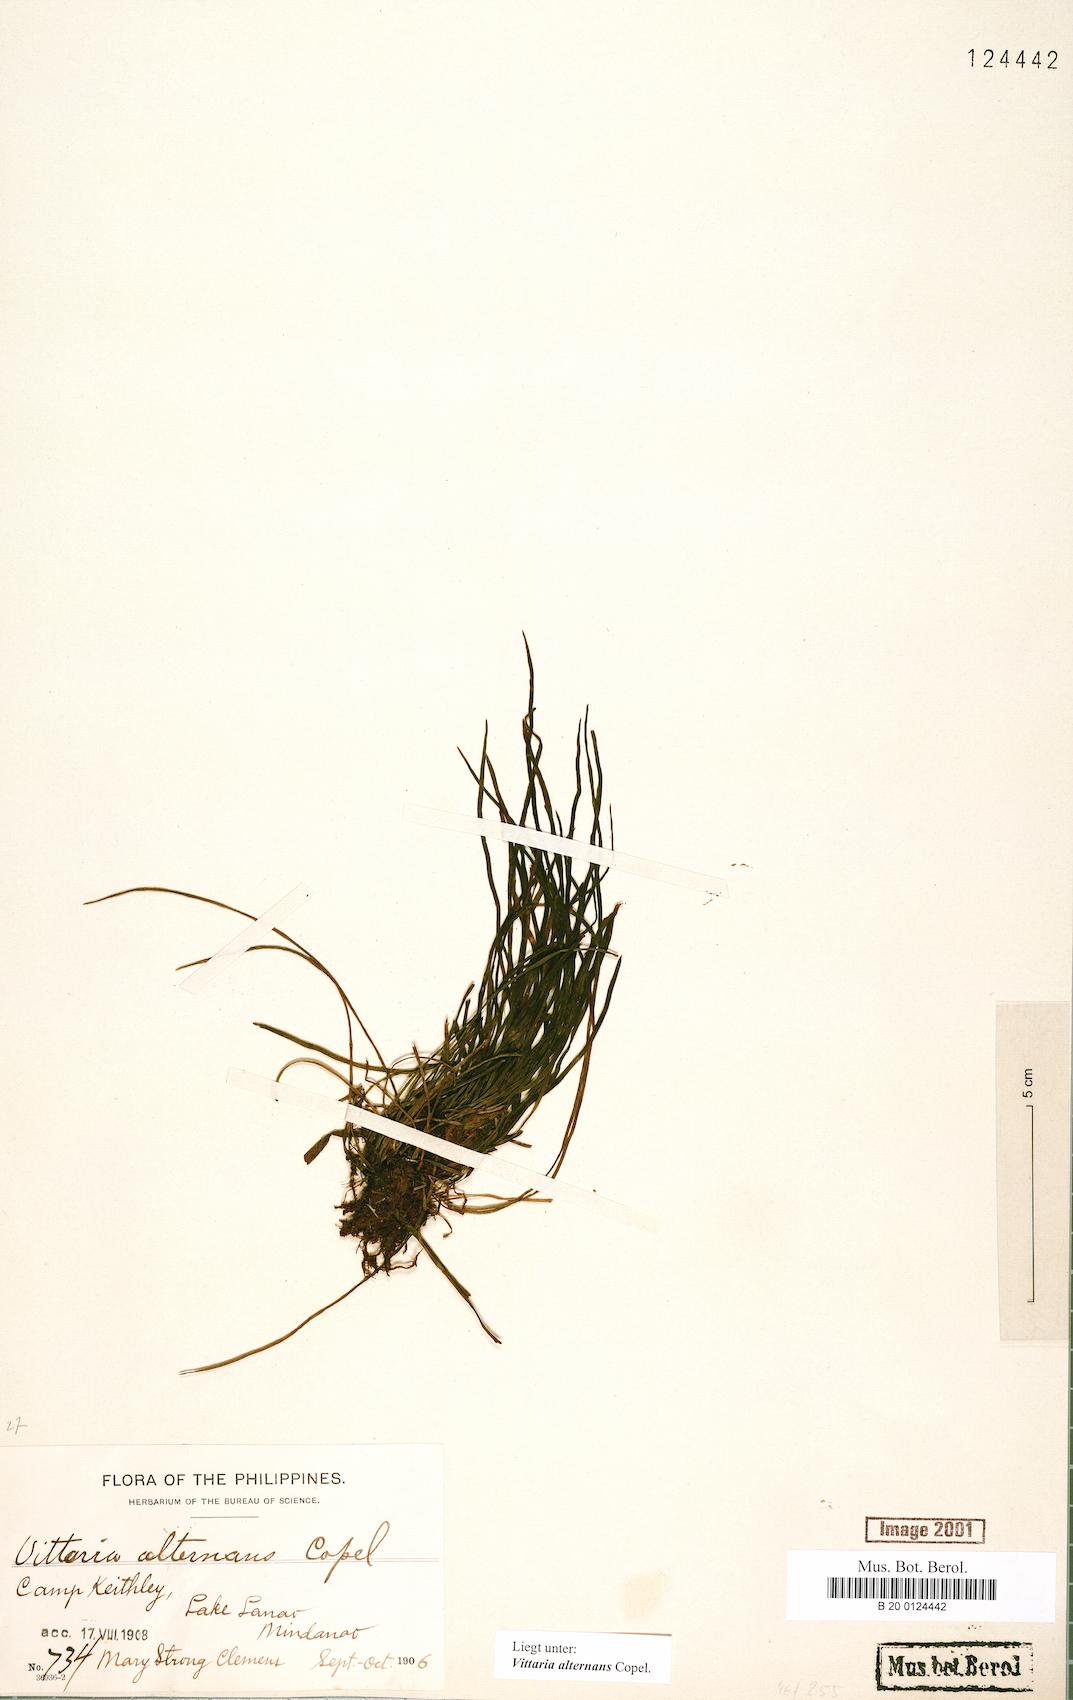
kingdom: Plantae
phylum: Tracheophyta
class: Polypodiopsida
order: Polypodiales
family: Pteridaceae
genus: Haplopteris
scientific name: Haplopteris alternans
